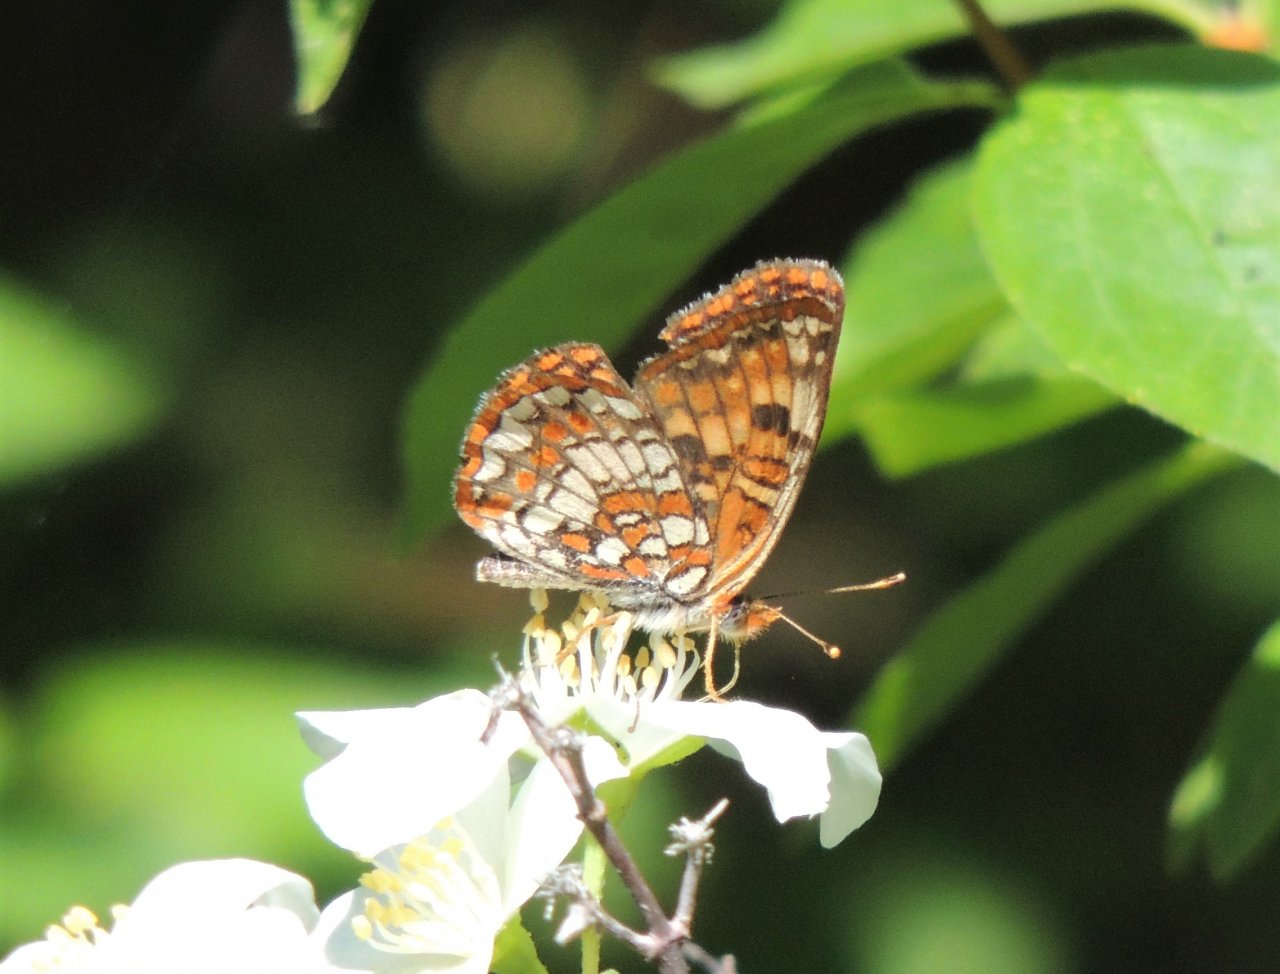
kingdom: Animalia
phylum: Arthropoda
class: Insecta
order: Lepidoptera
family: Nymphalidae
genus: Chlosyne
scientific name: Chlosyne palla
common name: Northern Checkerspot
